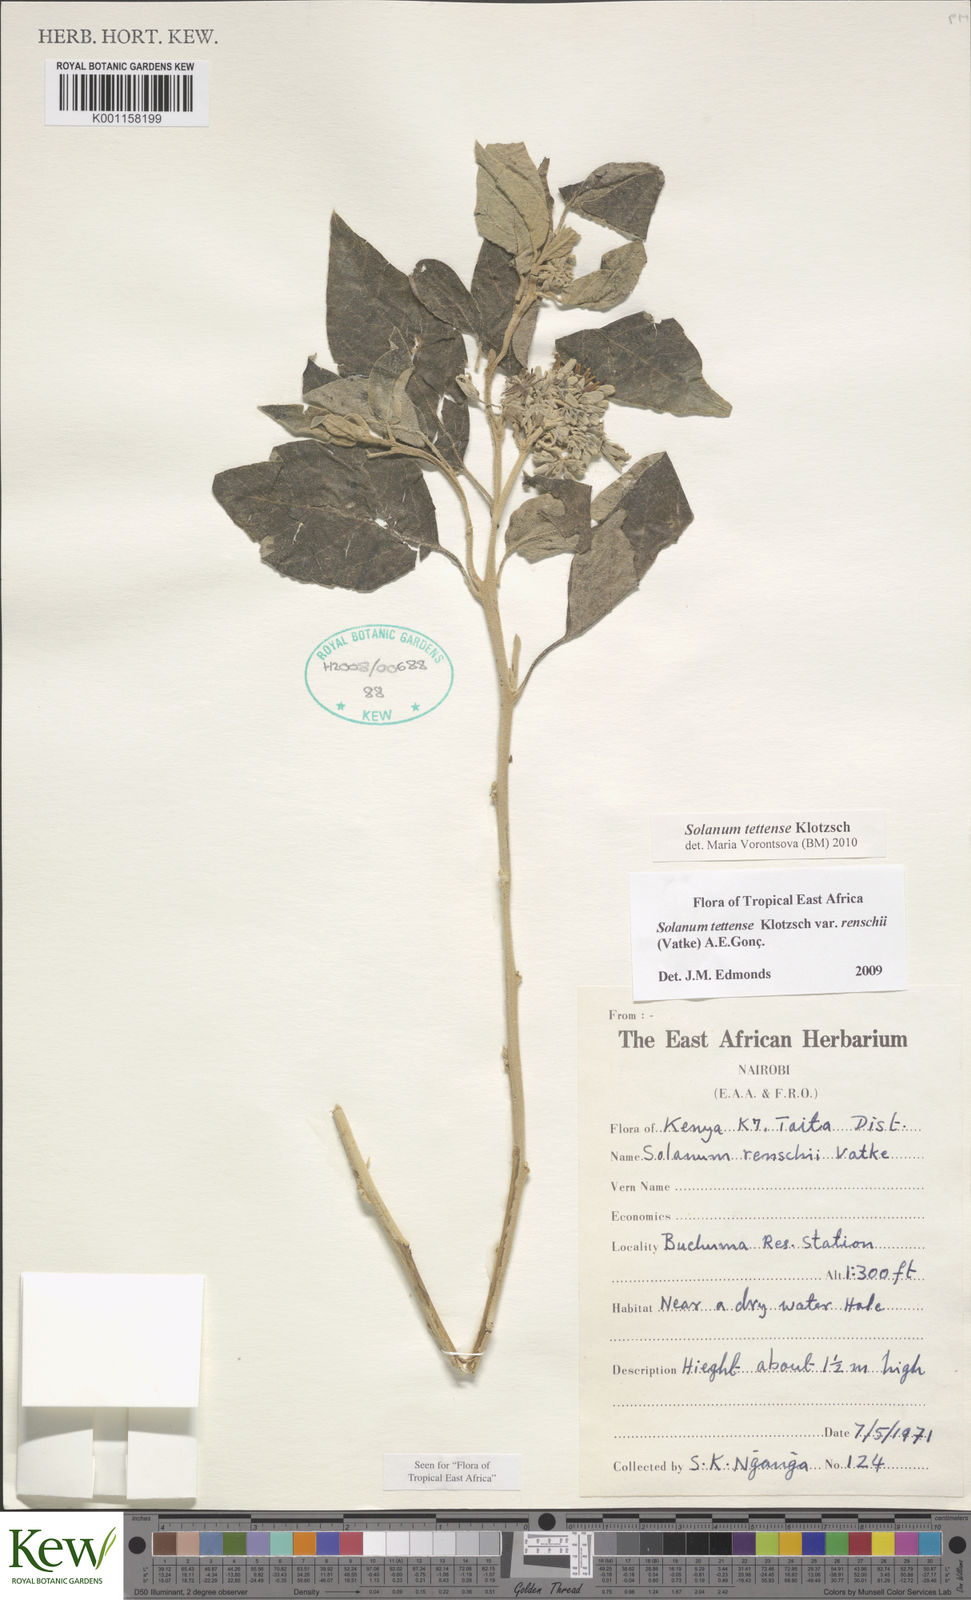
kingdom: Plantae
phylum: Tracheophyta
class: Magnoliopsida
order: Solanales
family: Solanaceae
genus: Solanum
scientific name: Solanum tettense
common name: Mozambique bitter apple
